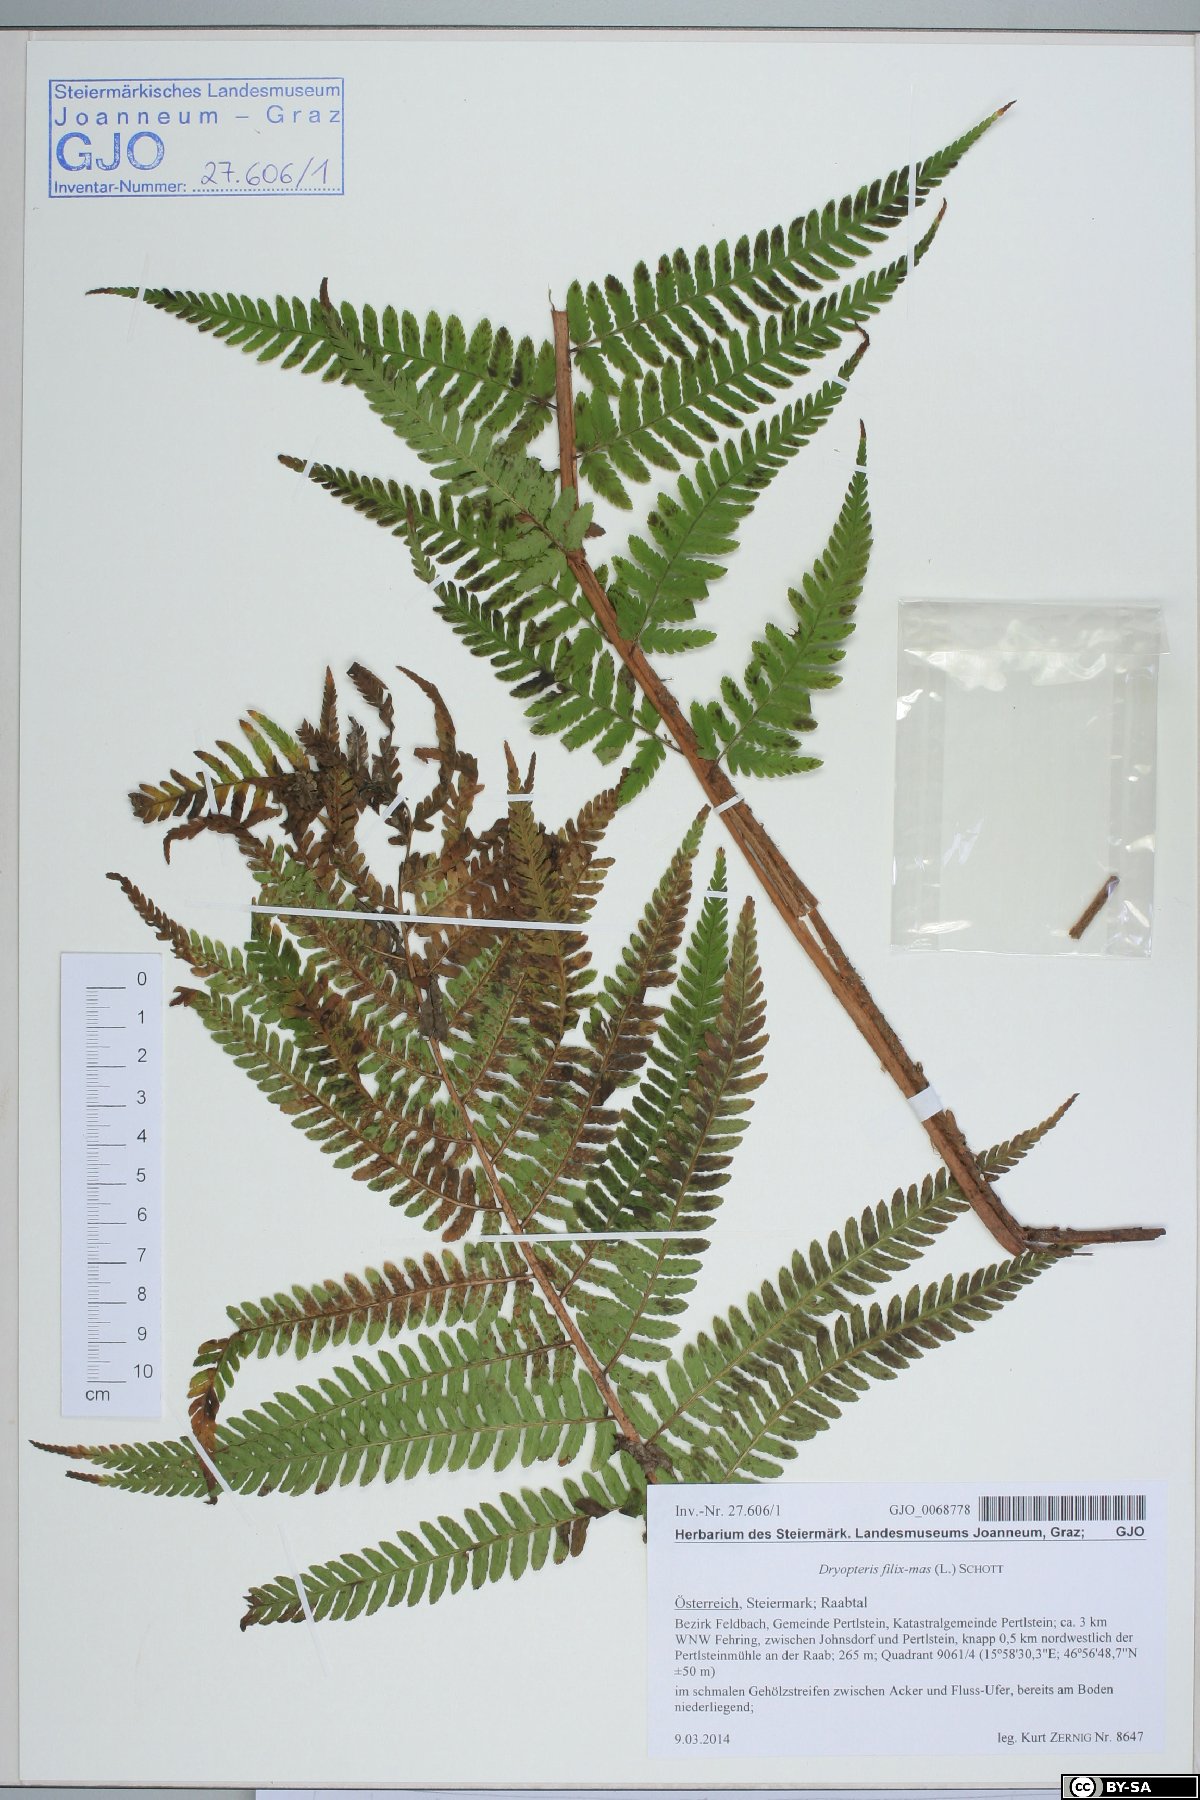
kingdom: Plantae
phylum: Tracheophyta
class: Polypodiopsida
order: Polypodiales
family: Dryopteridaceae
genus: Dryopteris
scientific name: Dryopteris filix-mas
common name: Male fern
